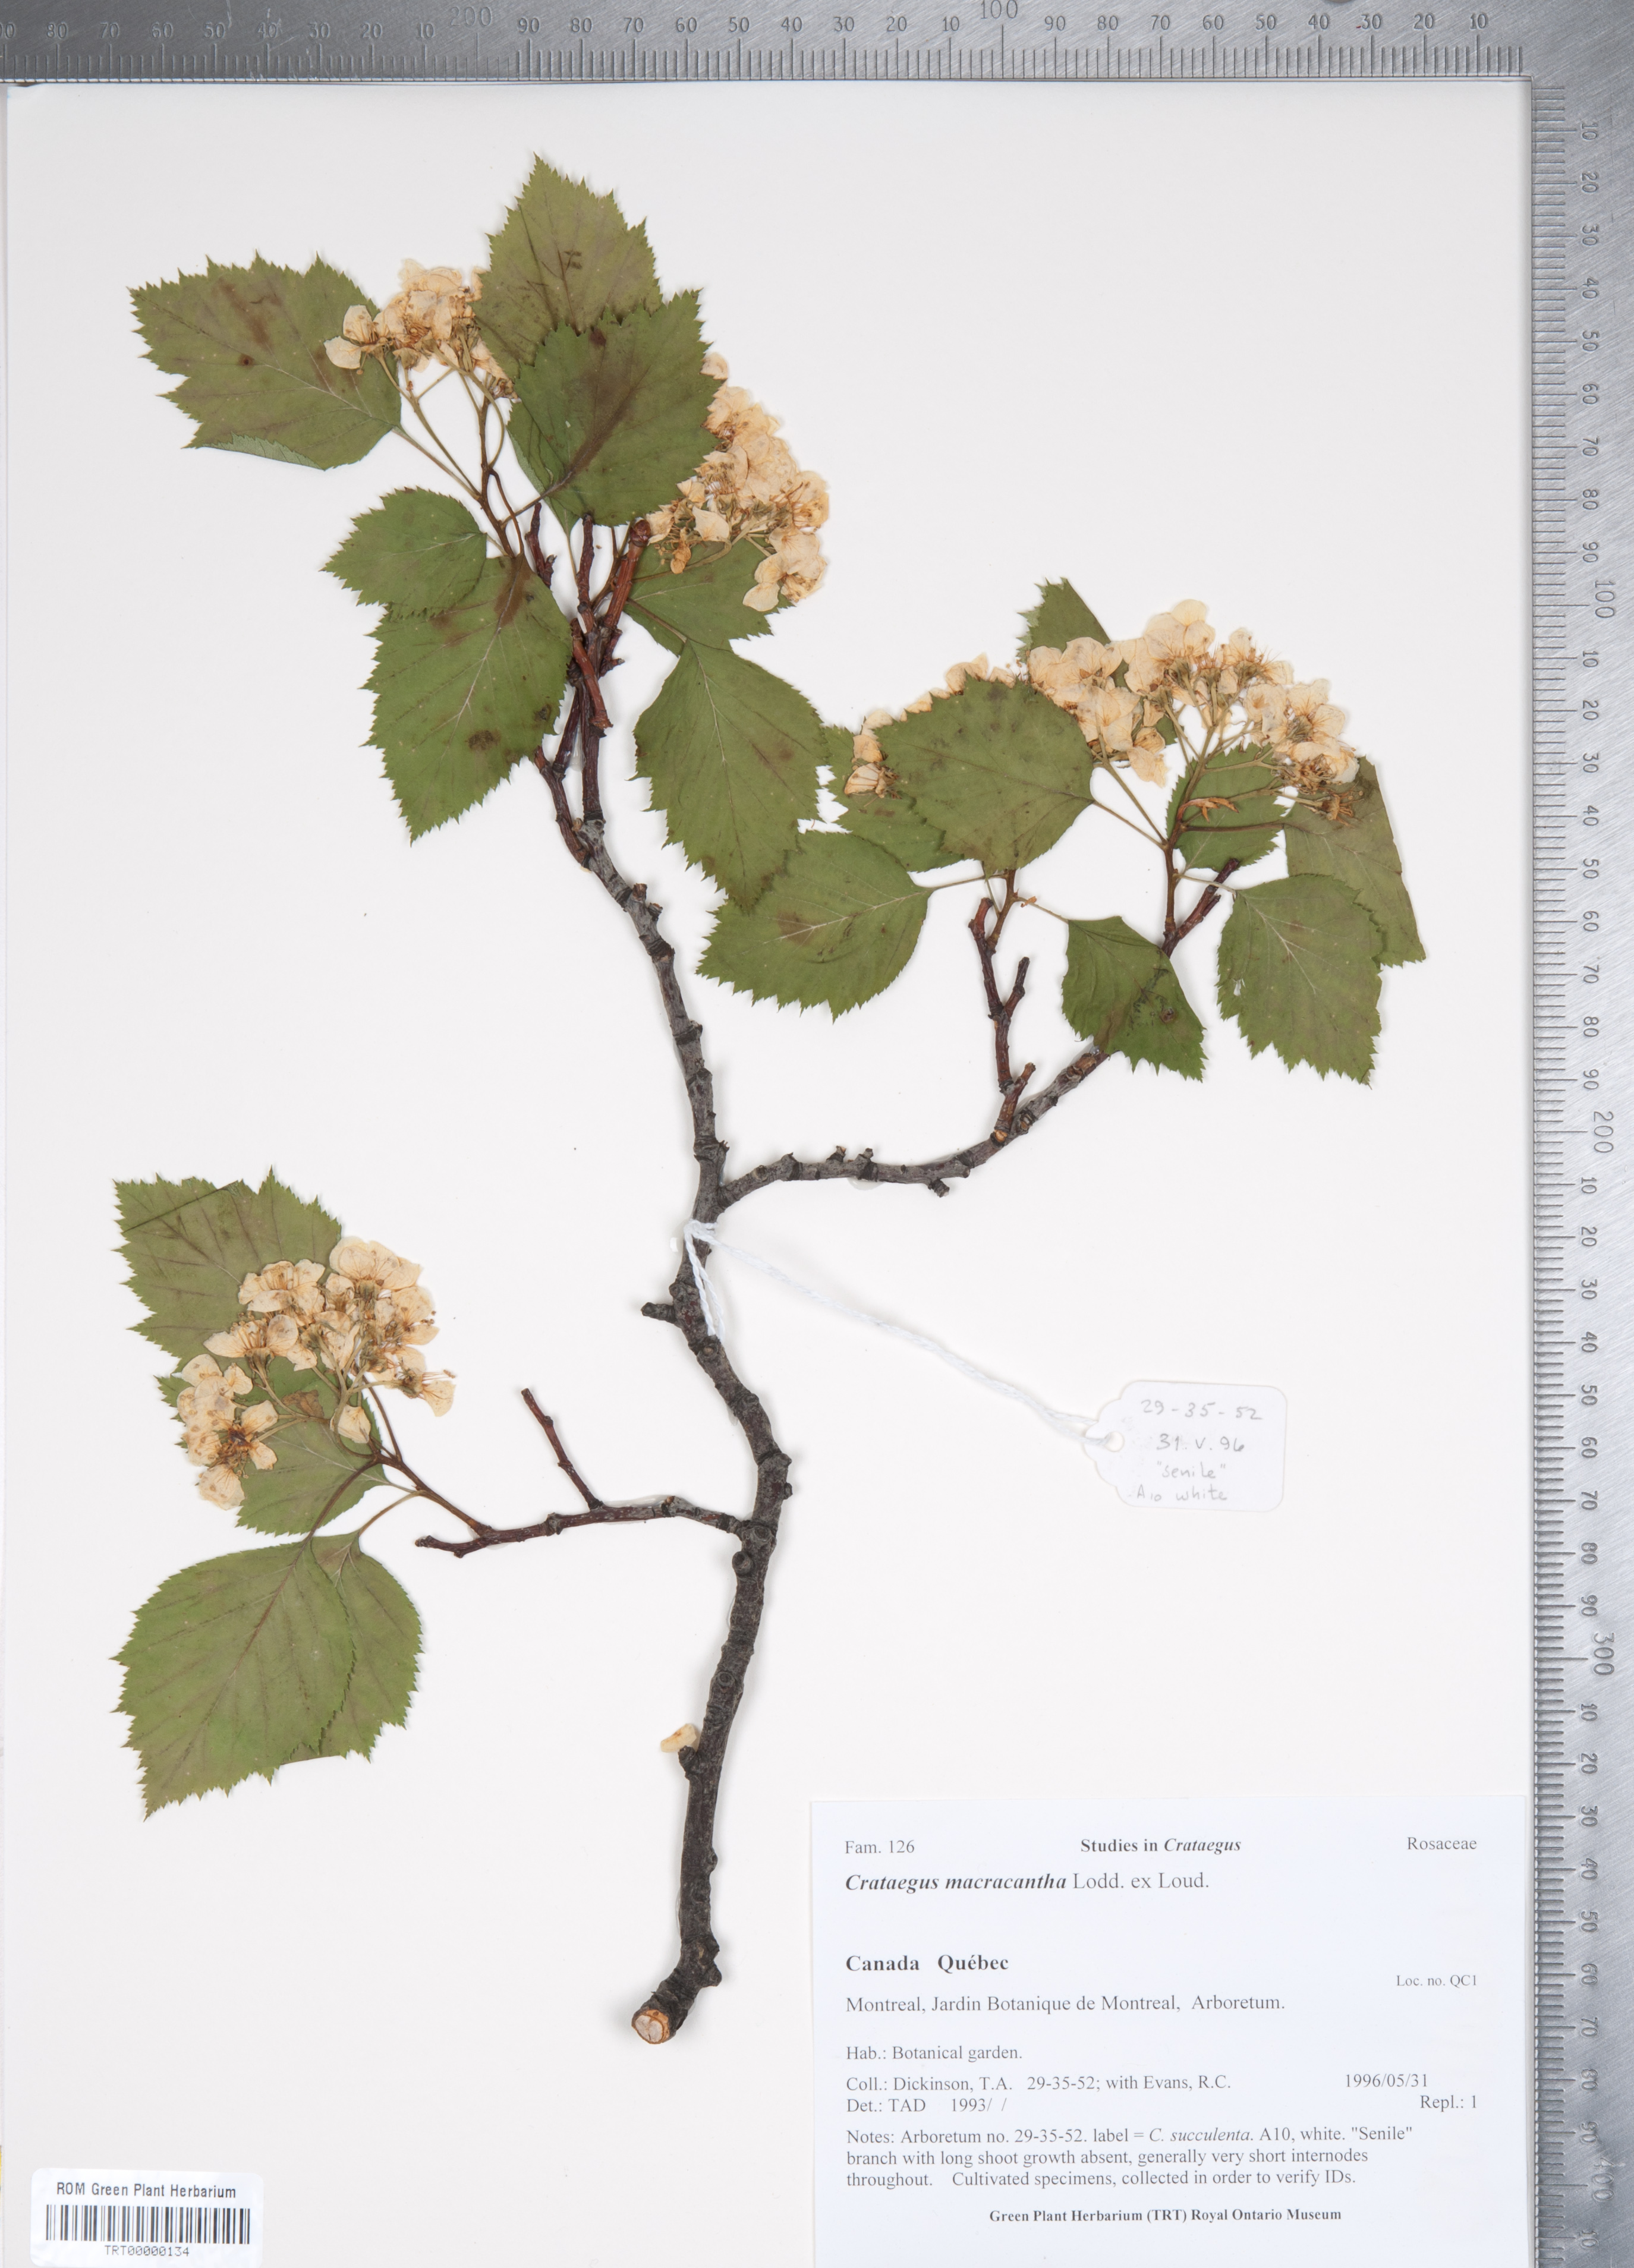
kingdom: Plantae
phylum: Tracheophyta
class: Magnoliopsida
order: Rosales
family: Rosaceae
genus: Crataegus
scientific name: Crataegus macracantha
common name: Large-thorn hawthorn
